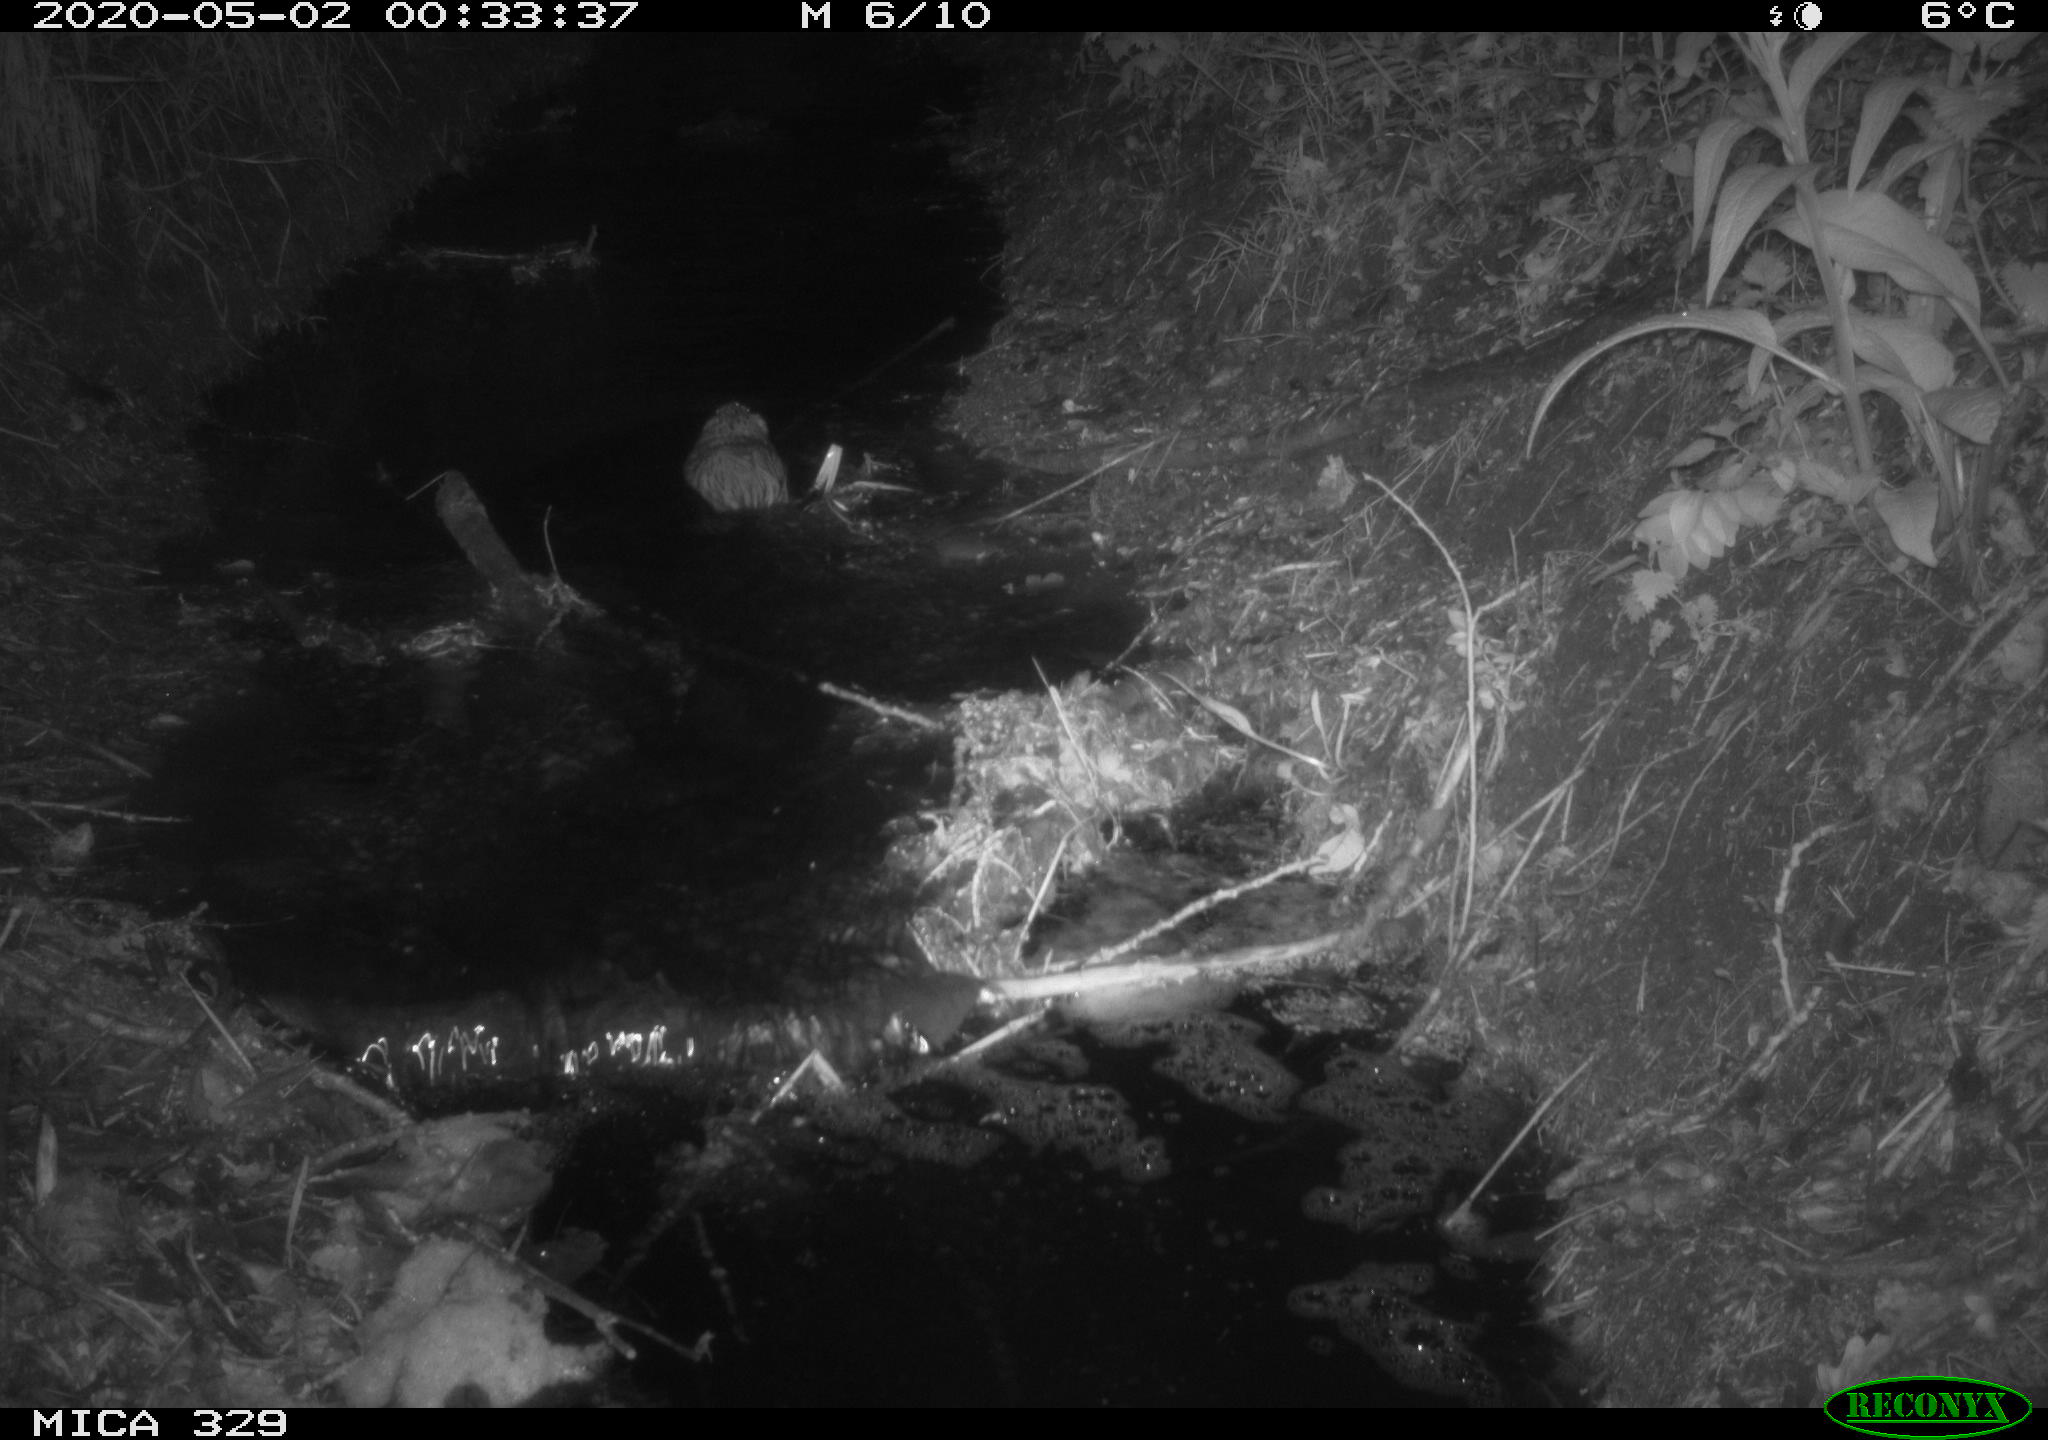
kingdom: Animalia
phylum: Chordata
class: Mammalia
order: Rodentia
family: Cricetidae
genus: Ondatra
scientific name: Ondatra zibethicus
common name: Muskrat
